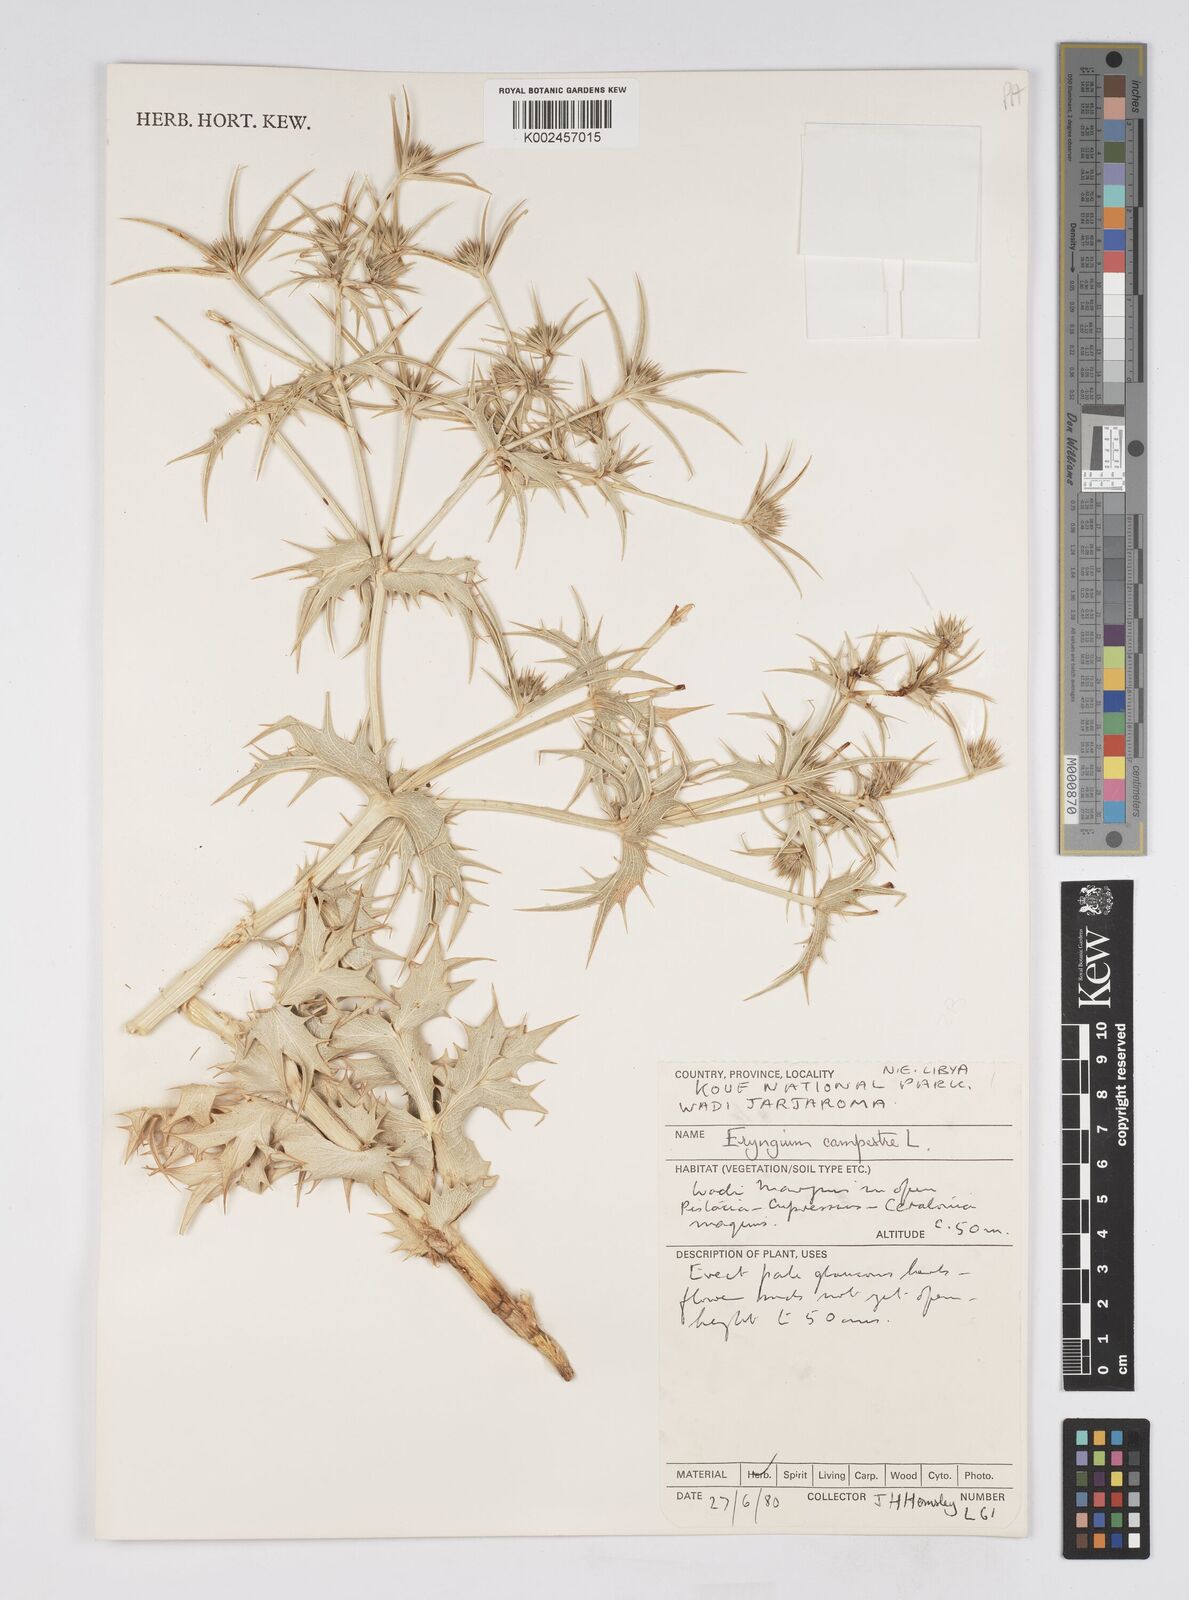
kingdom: Plantae
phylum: Tracheophyta
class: Magnoliopsida
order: Apiales
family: Apiaceae
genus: Eryngium
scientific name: Eryngium campestre
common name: Field eryngo
